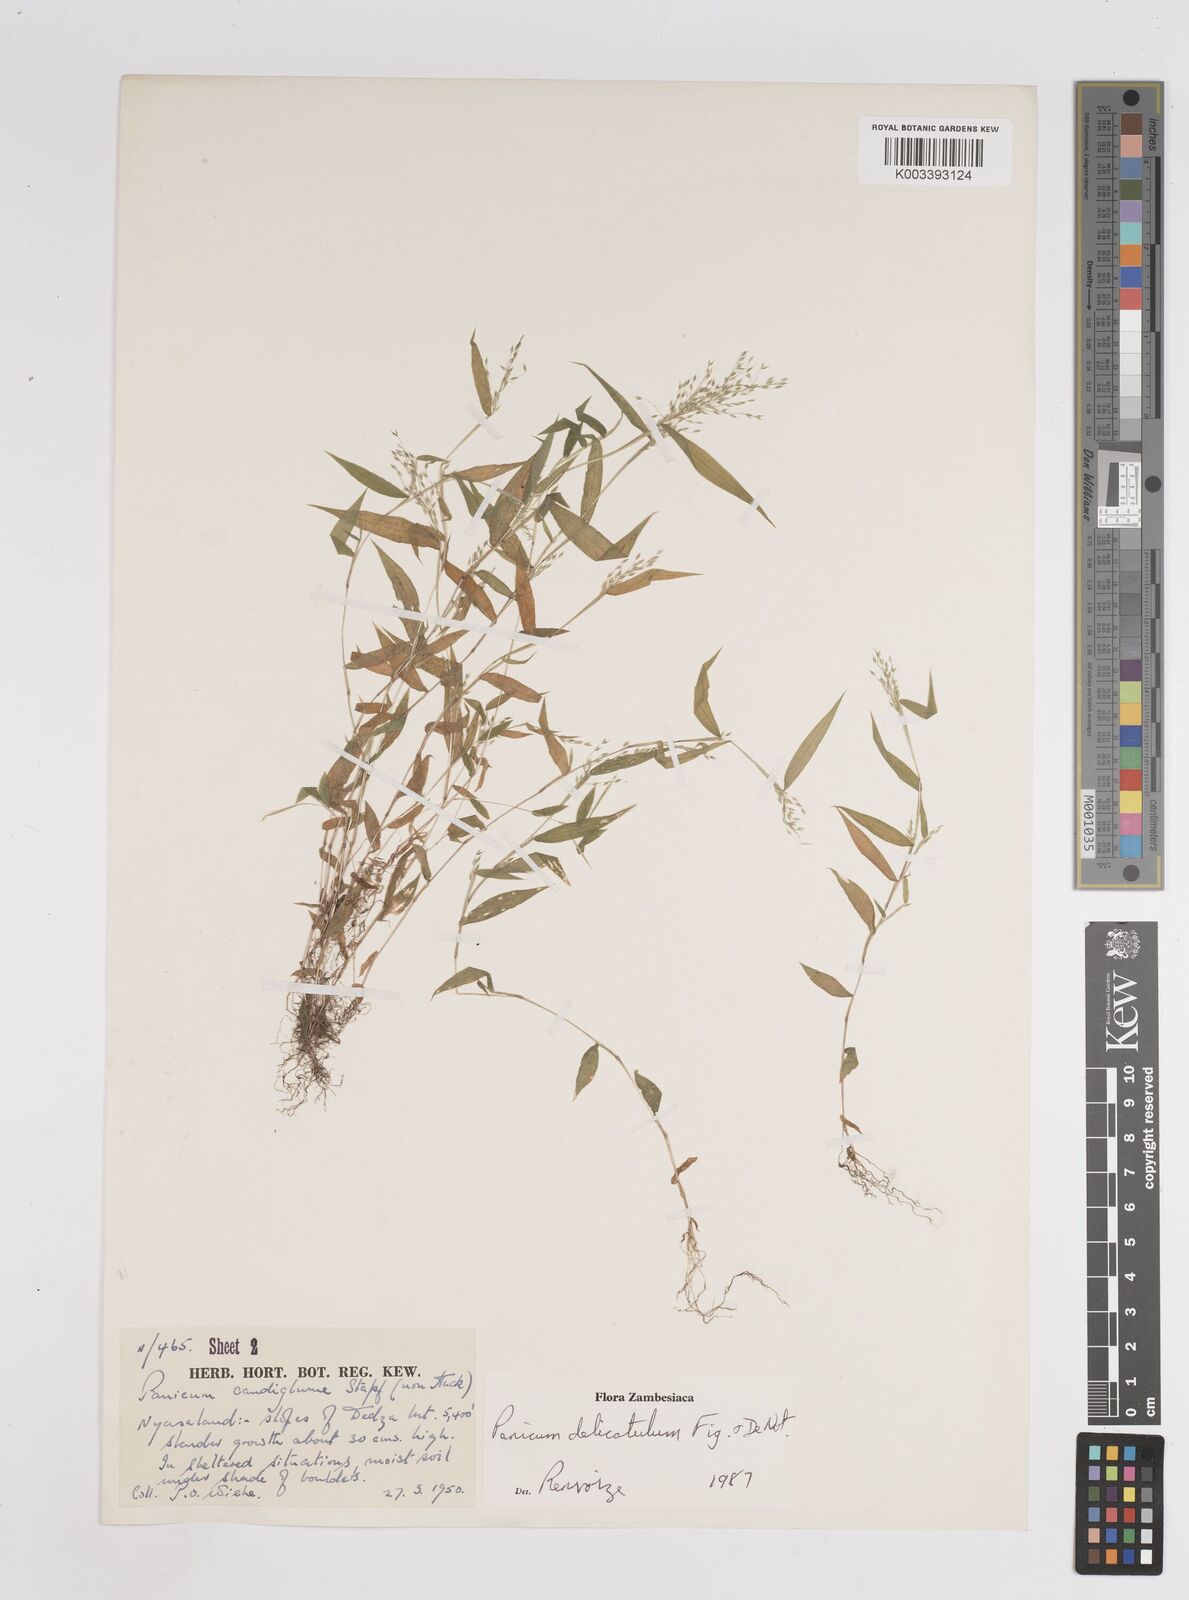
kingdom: Plantae
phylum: Tracheophyta
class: Liliopsida
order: Poales
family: Poaceae
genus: Panicum
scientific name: Panicum delicatulum
